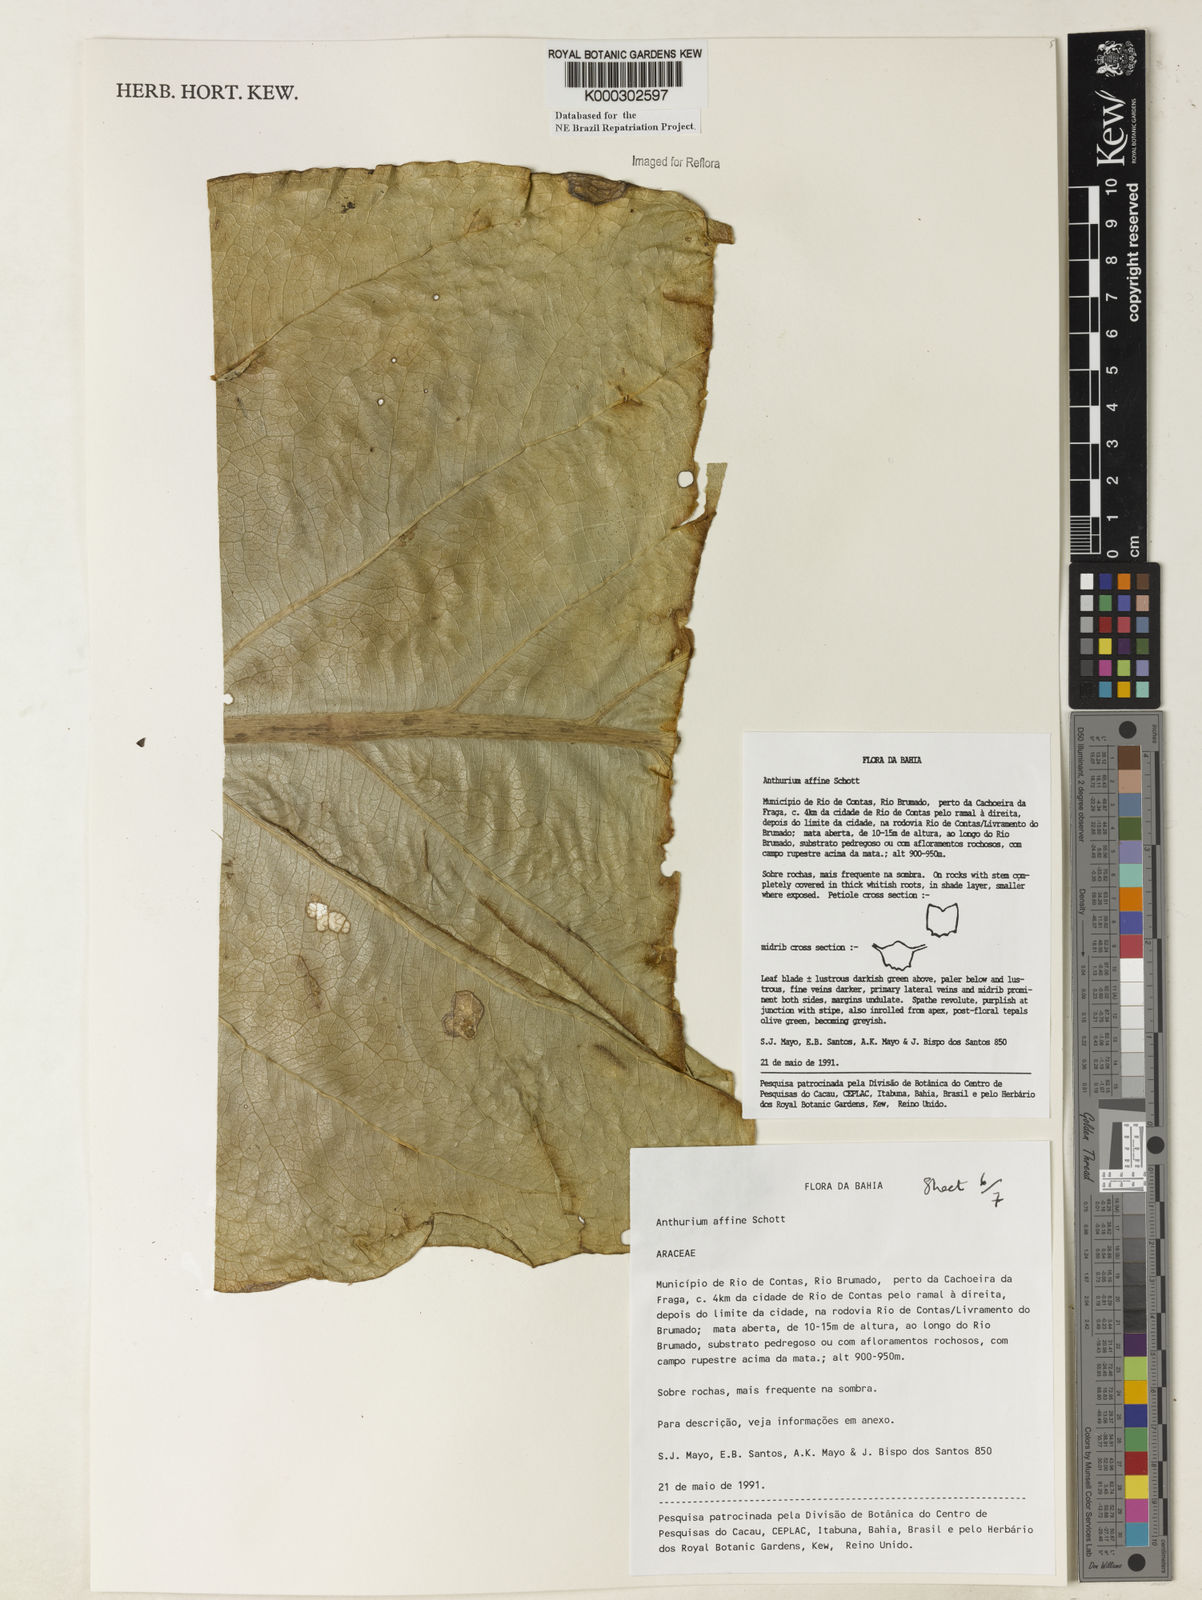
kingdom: Plantae
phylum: Tracheophyta
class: Liliopsida
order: Alismatales
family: Araceae
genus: Anthurium
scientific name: Anthurium affine
